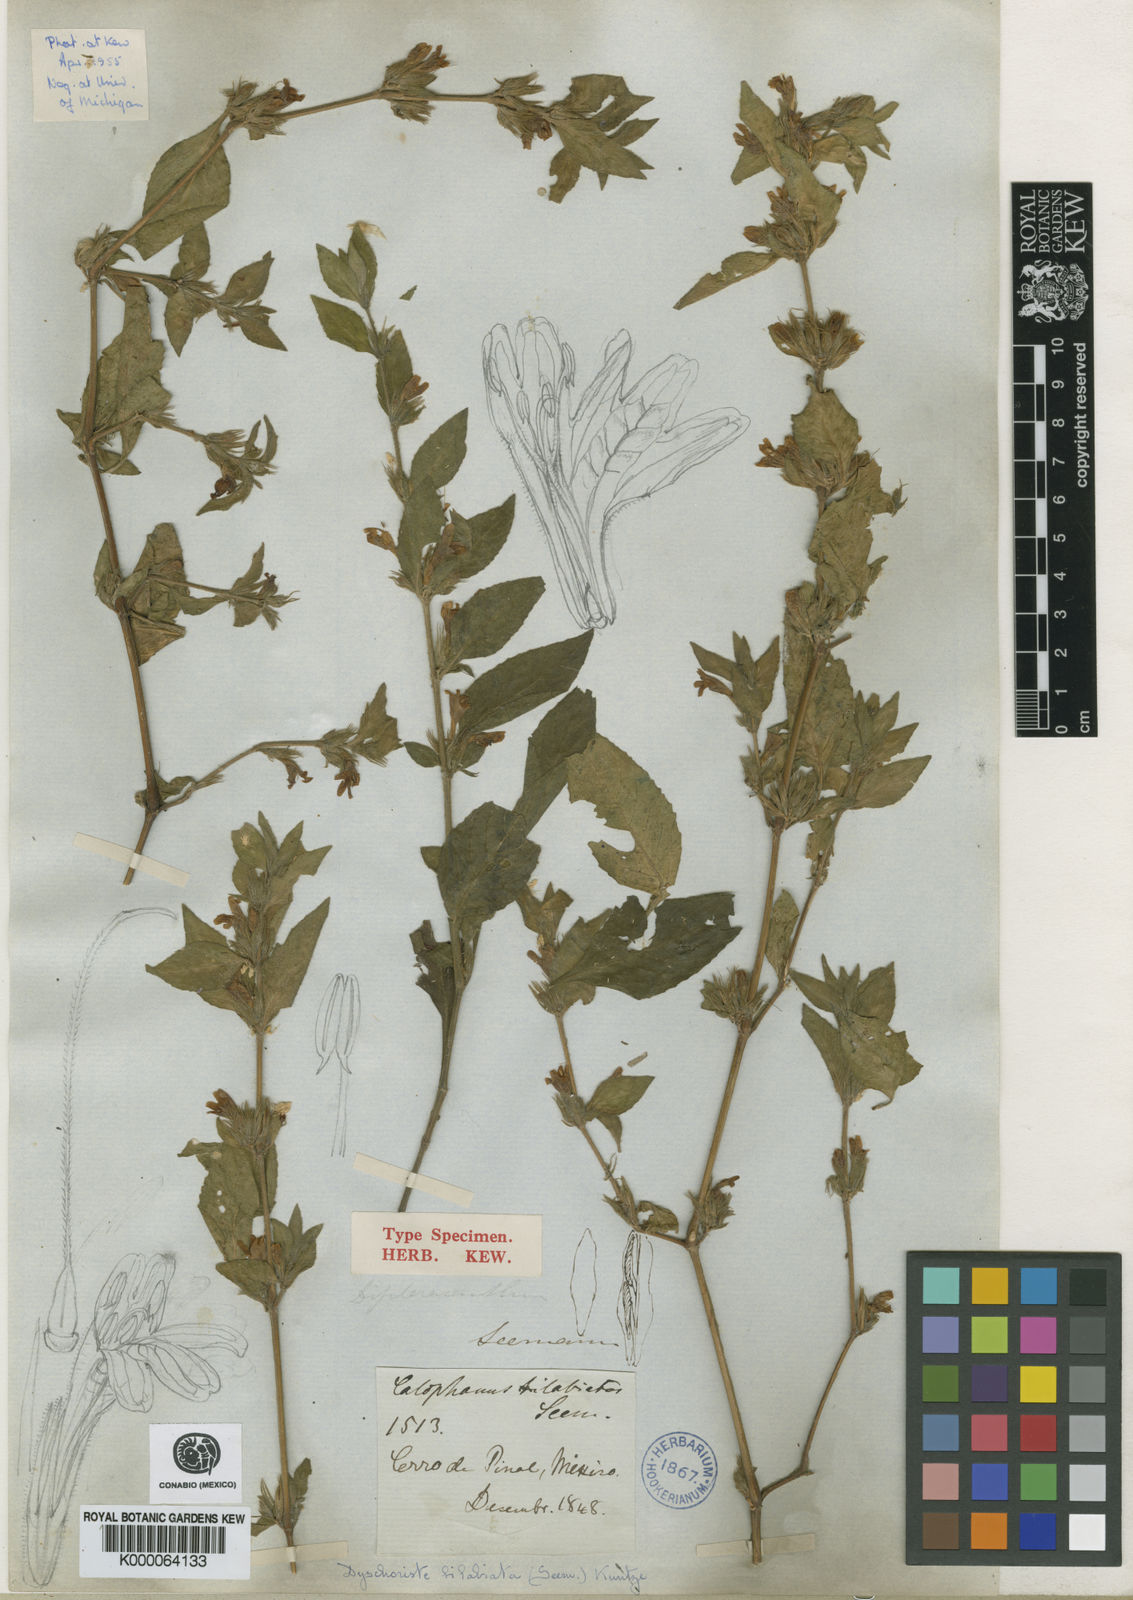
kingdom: Plantae
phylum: Tracheophyta
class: Magnoliopsida
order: Lamiales
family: Acanthaceae
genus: Dyschoriste
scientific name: Dyschoriste hirsutissima
